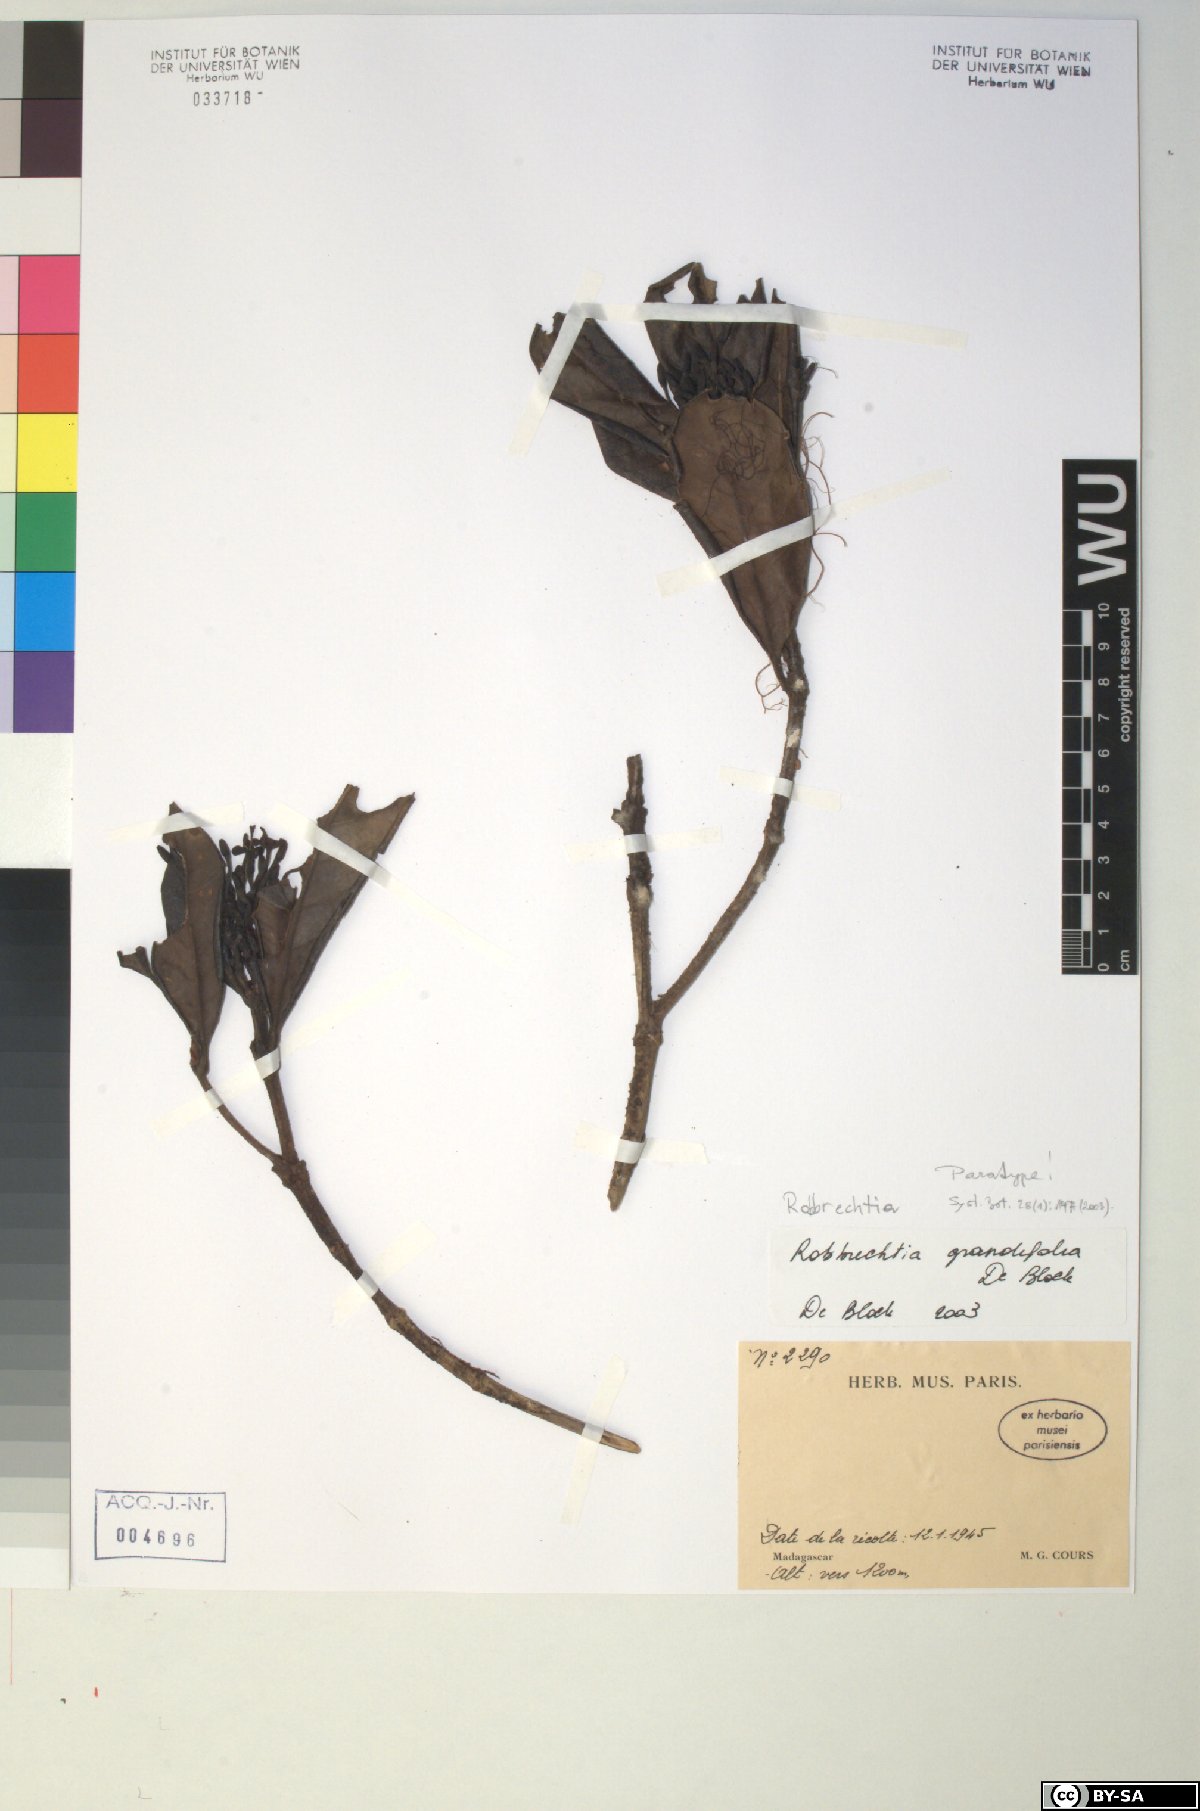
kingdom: Plantae
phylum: Tracheophyta
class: Magnoliopsida
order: Gentianales
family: Rubiaceae
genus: Robbrechtia
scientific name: Robbrechtia grandifolia
